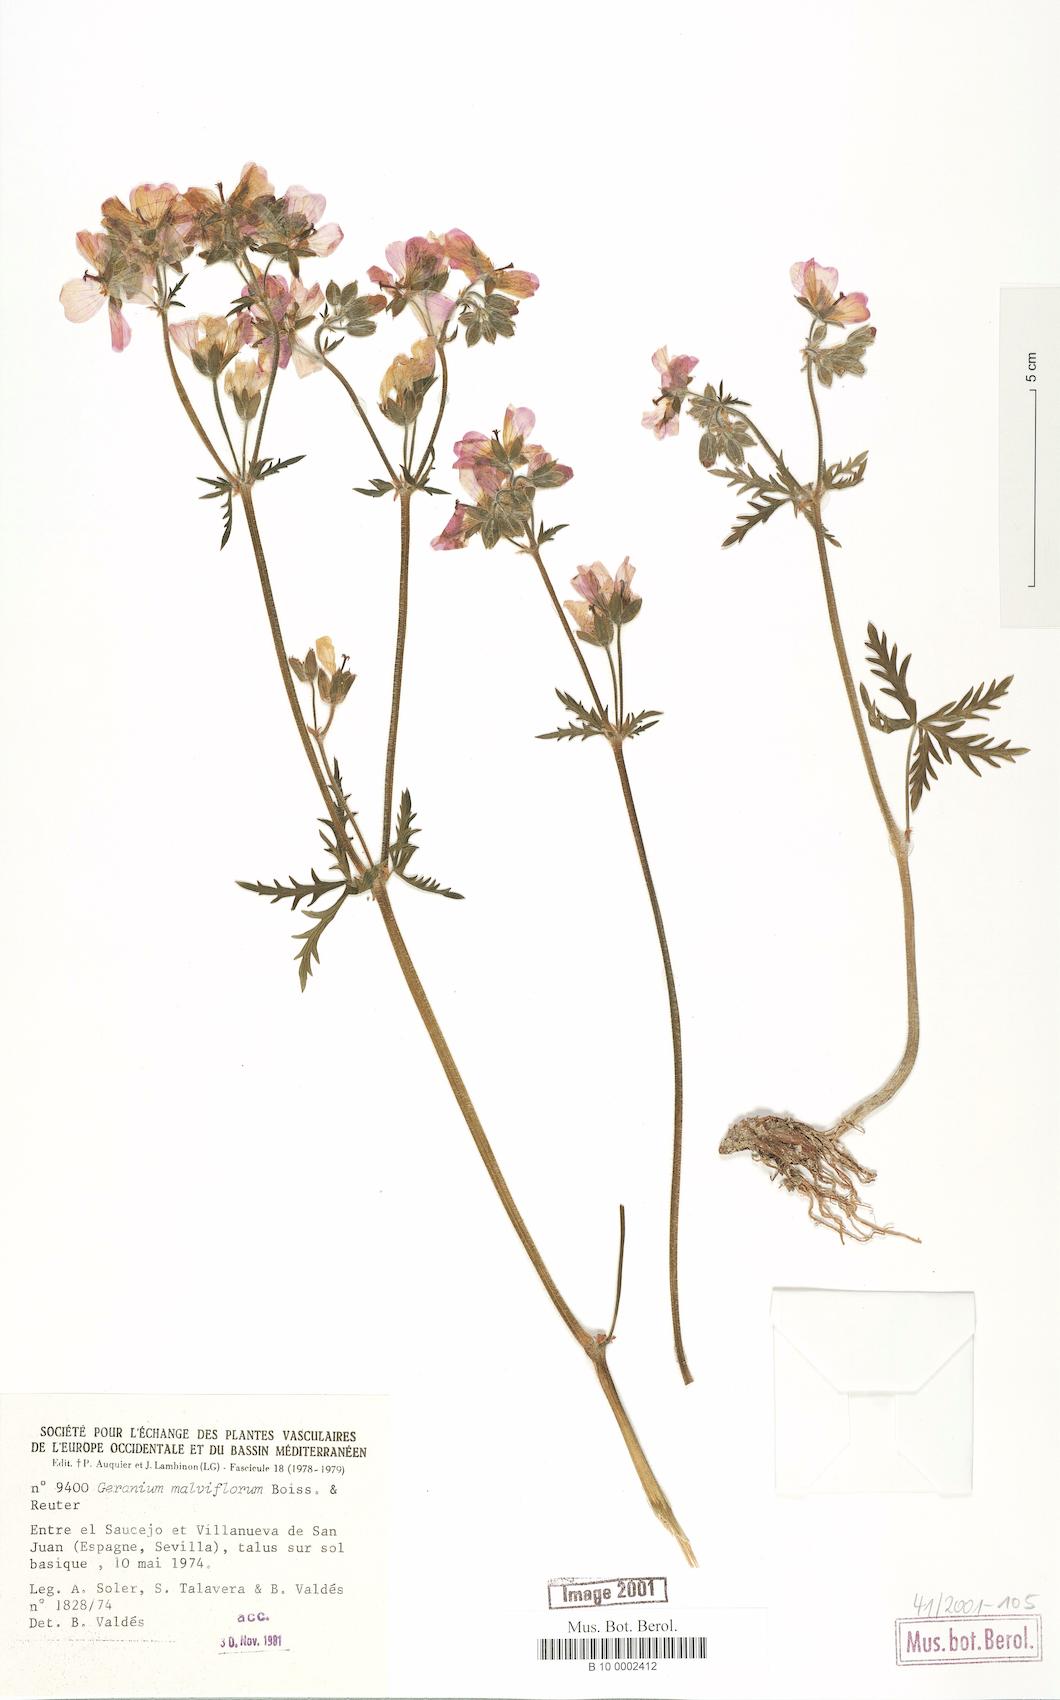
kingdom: Plantae
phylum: Tracheophyta
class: Magnoliopsida
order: Geraniales
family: Geraniaceae
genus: Geranium
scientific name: Geranium malviflorum
